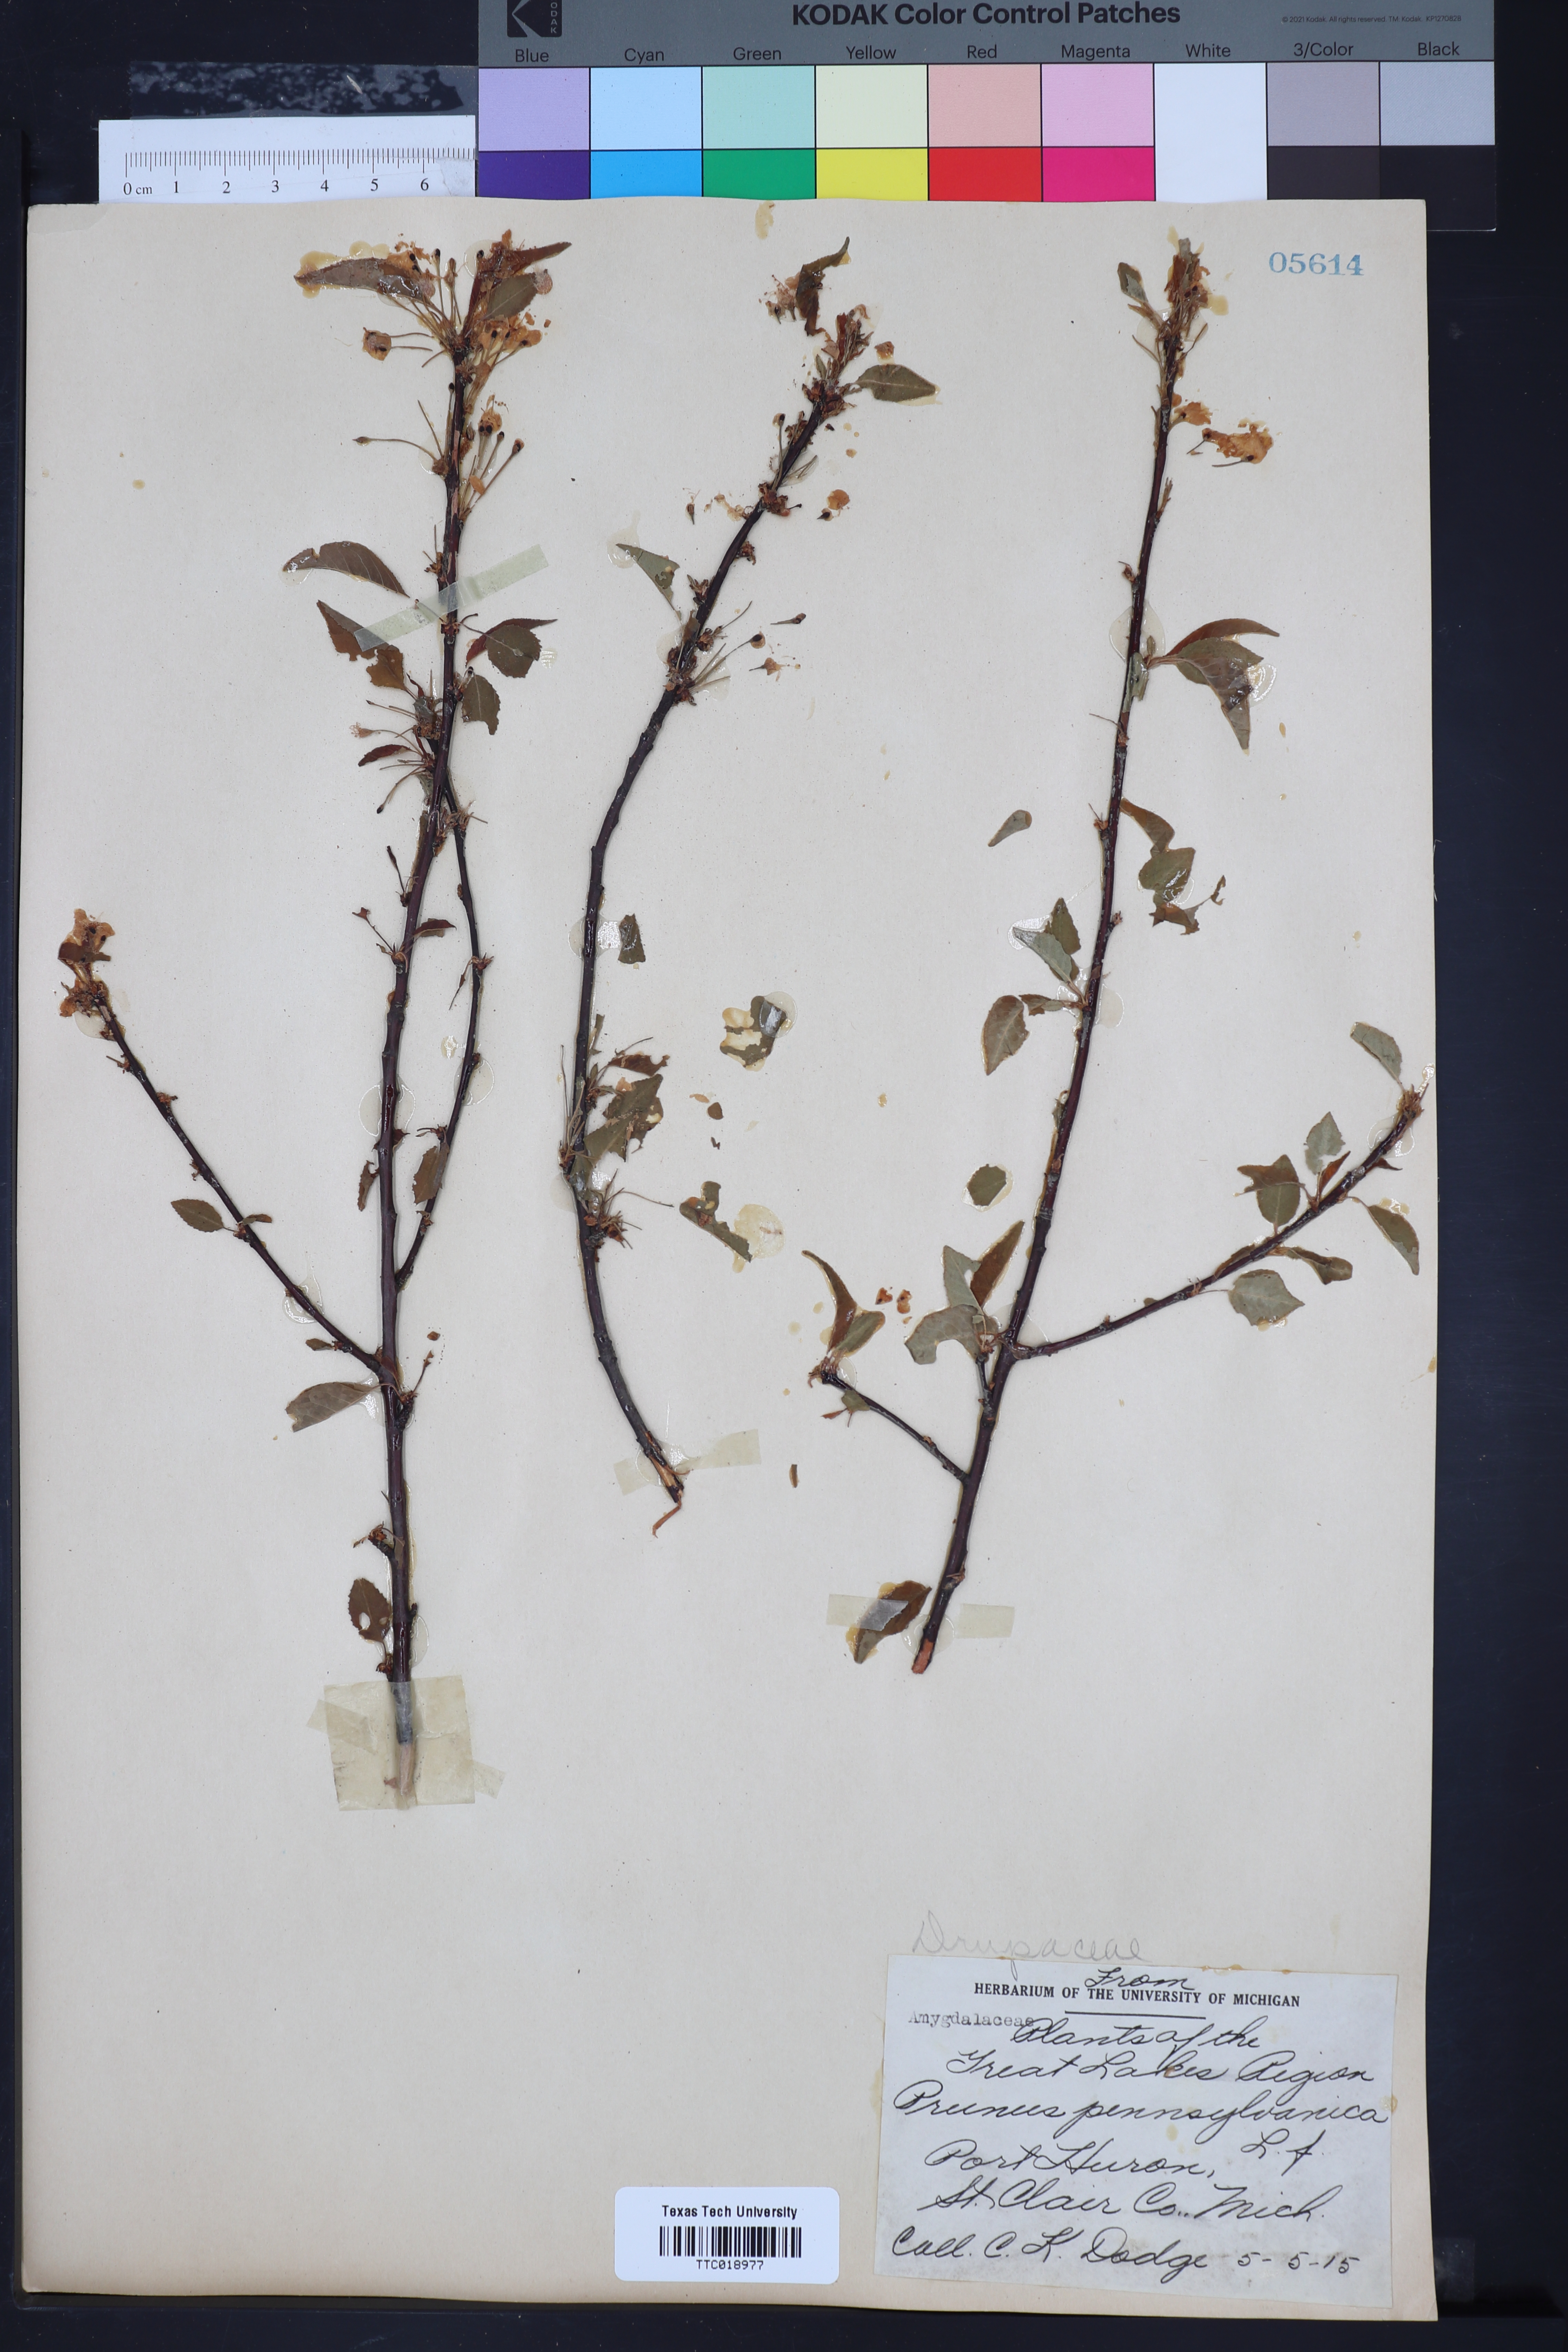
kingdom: Plantae
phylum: Tracheophyta
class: Magnoliopsida
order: Rosales
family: Rosaceae
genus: Prunus
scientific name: Prunus pensylvanica
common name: Pin cherry
